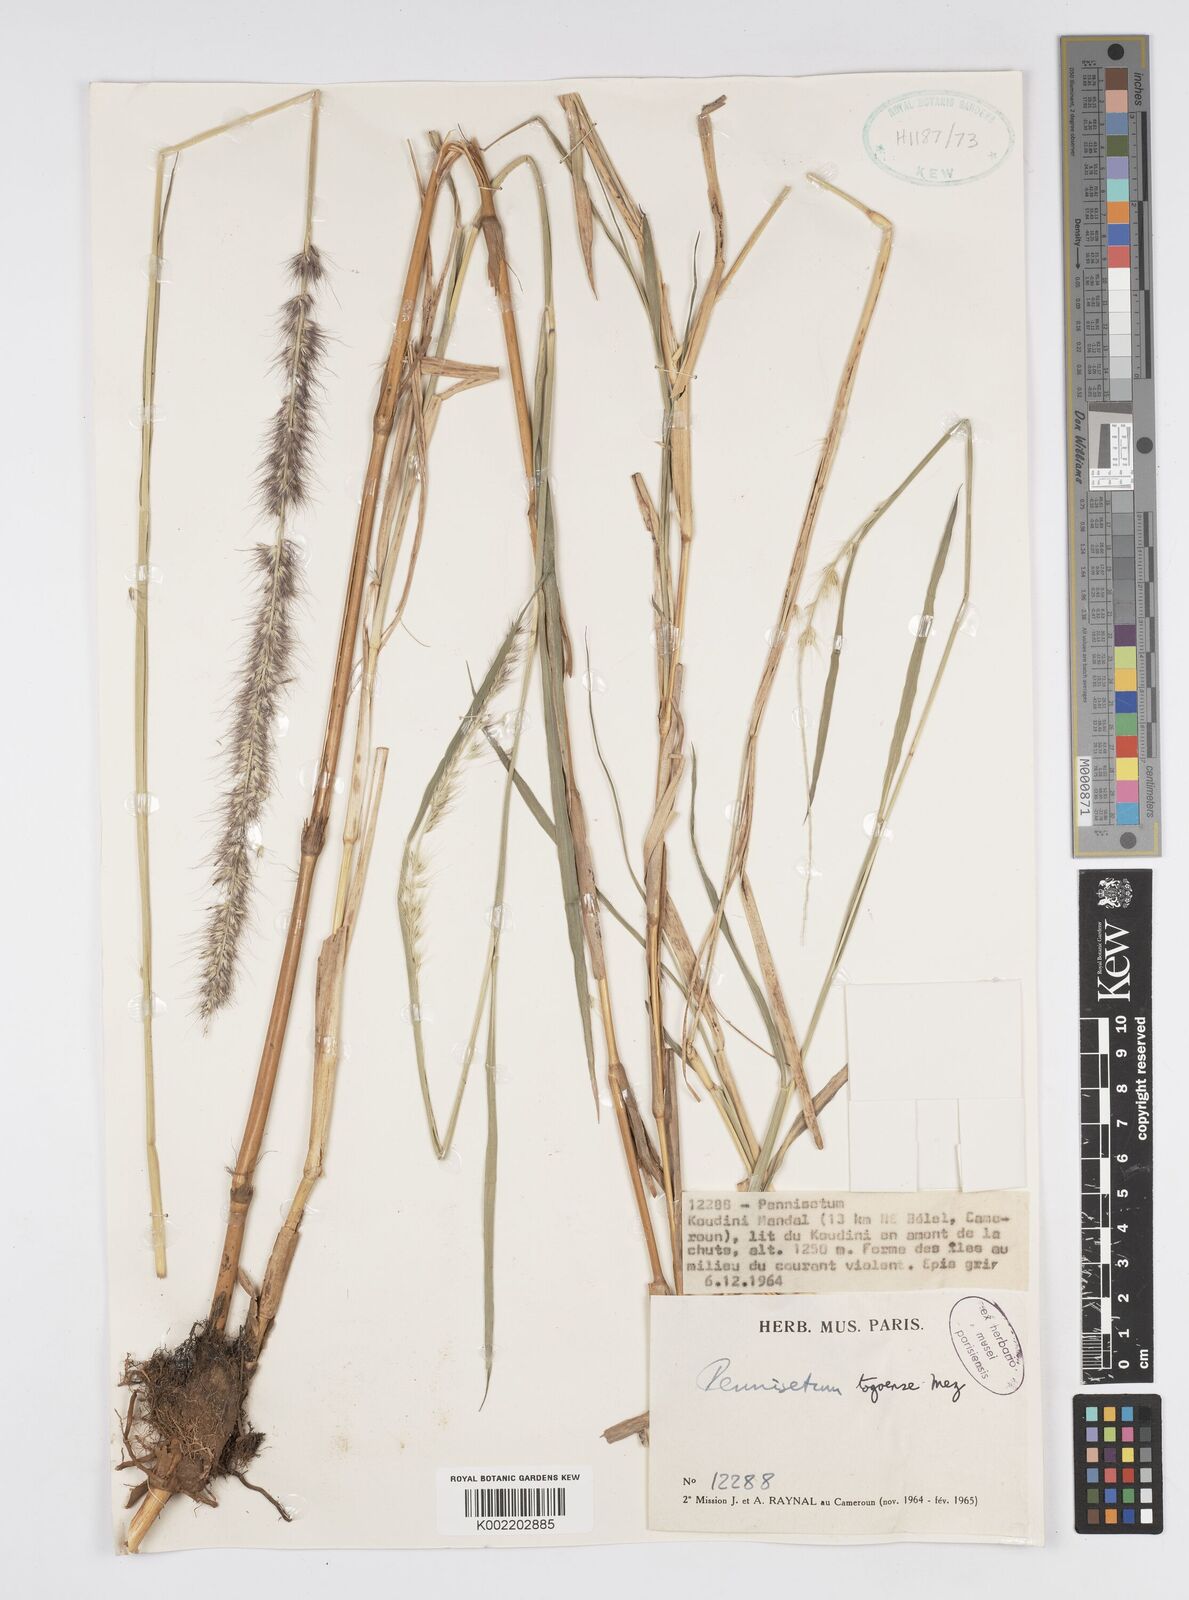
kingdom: Plantae
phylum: Tracheophyta
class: Liliopsida
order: Poales
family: Poaceae
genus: Cenchrus
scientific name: Cenchrus caudatus
